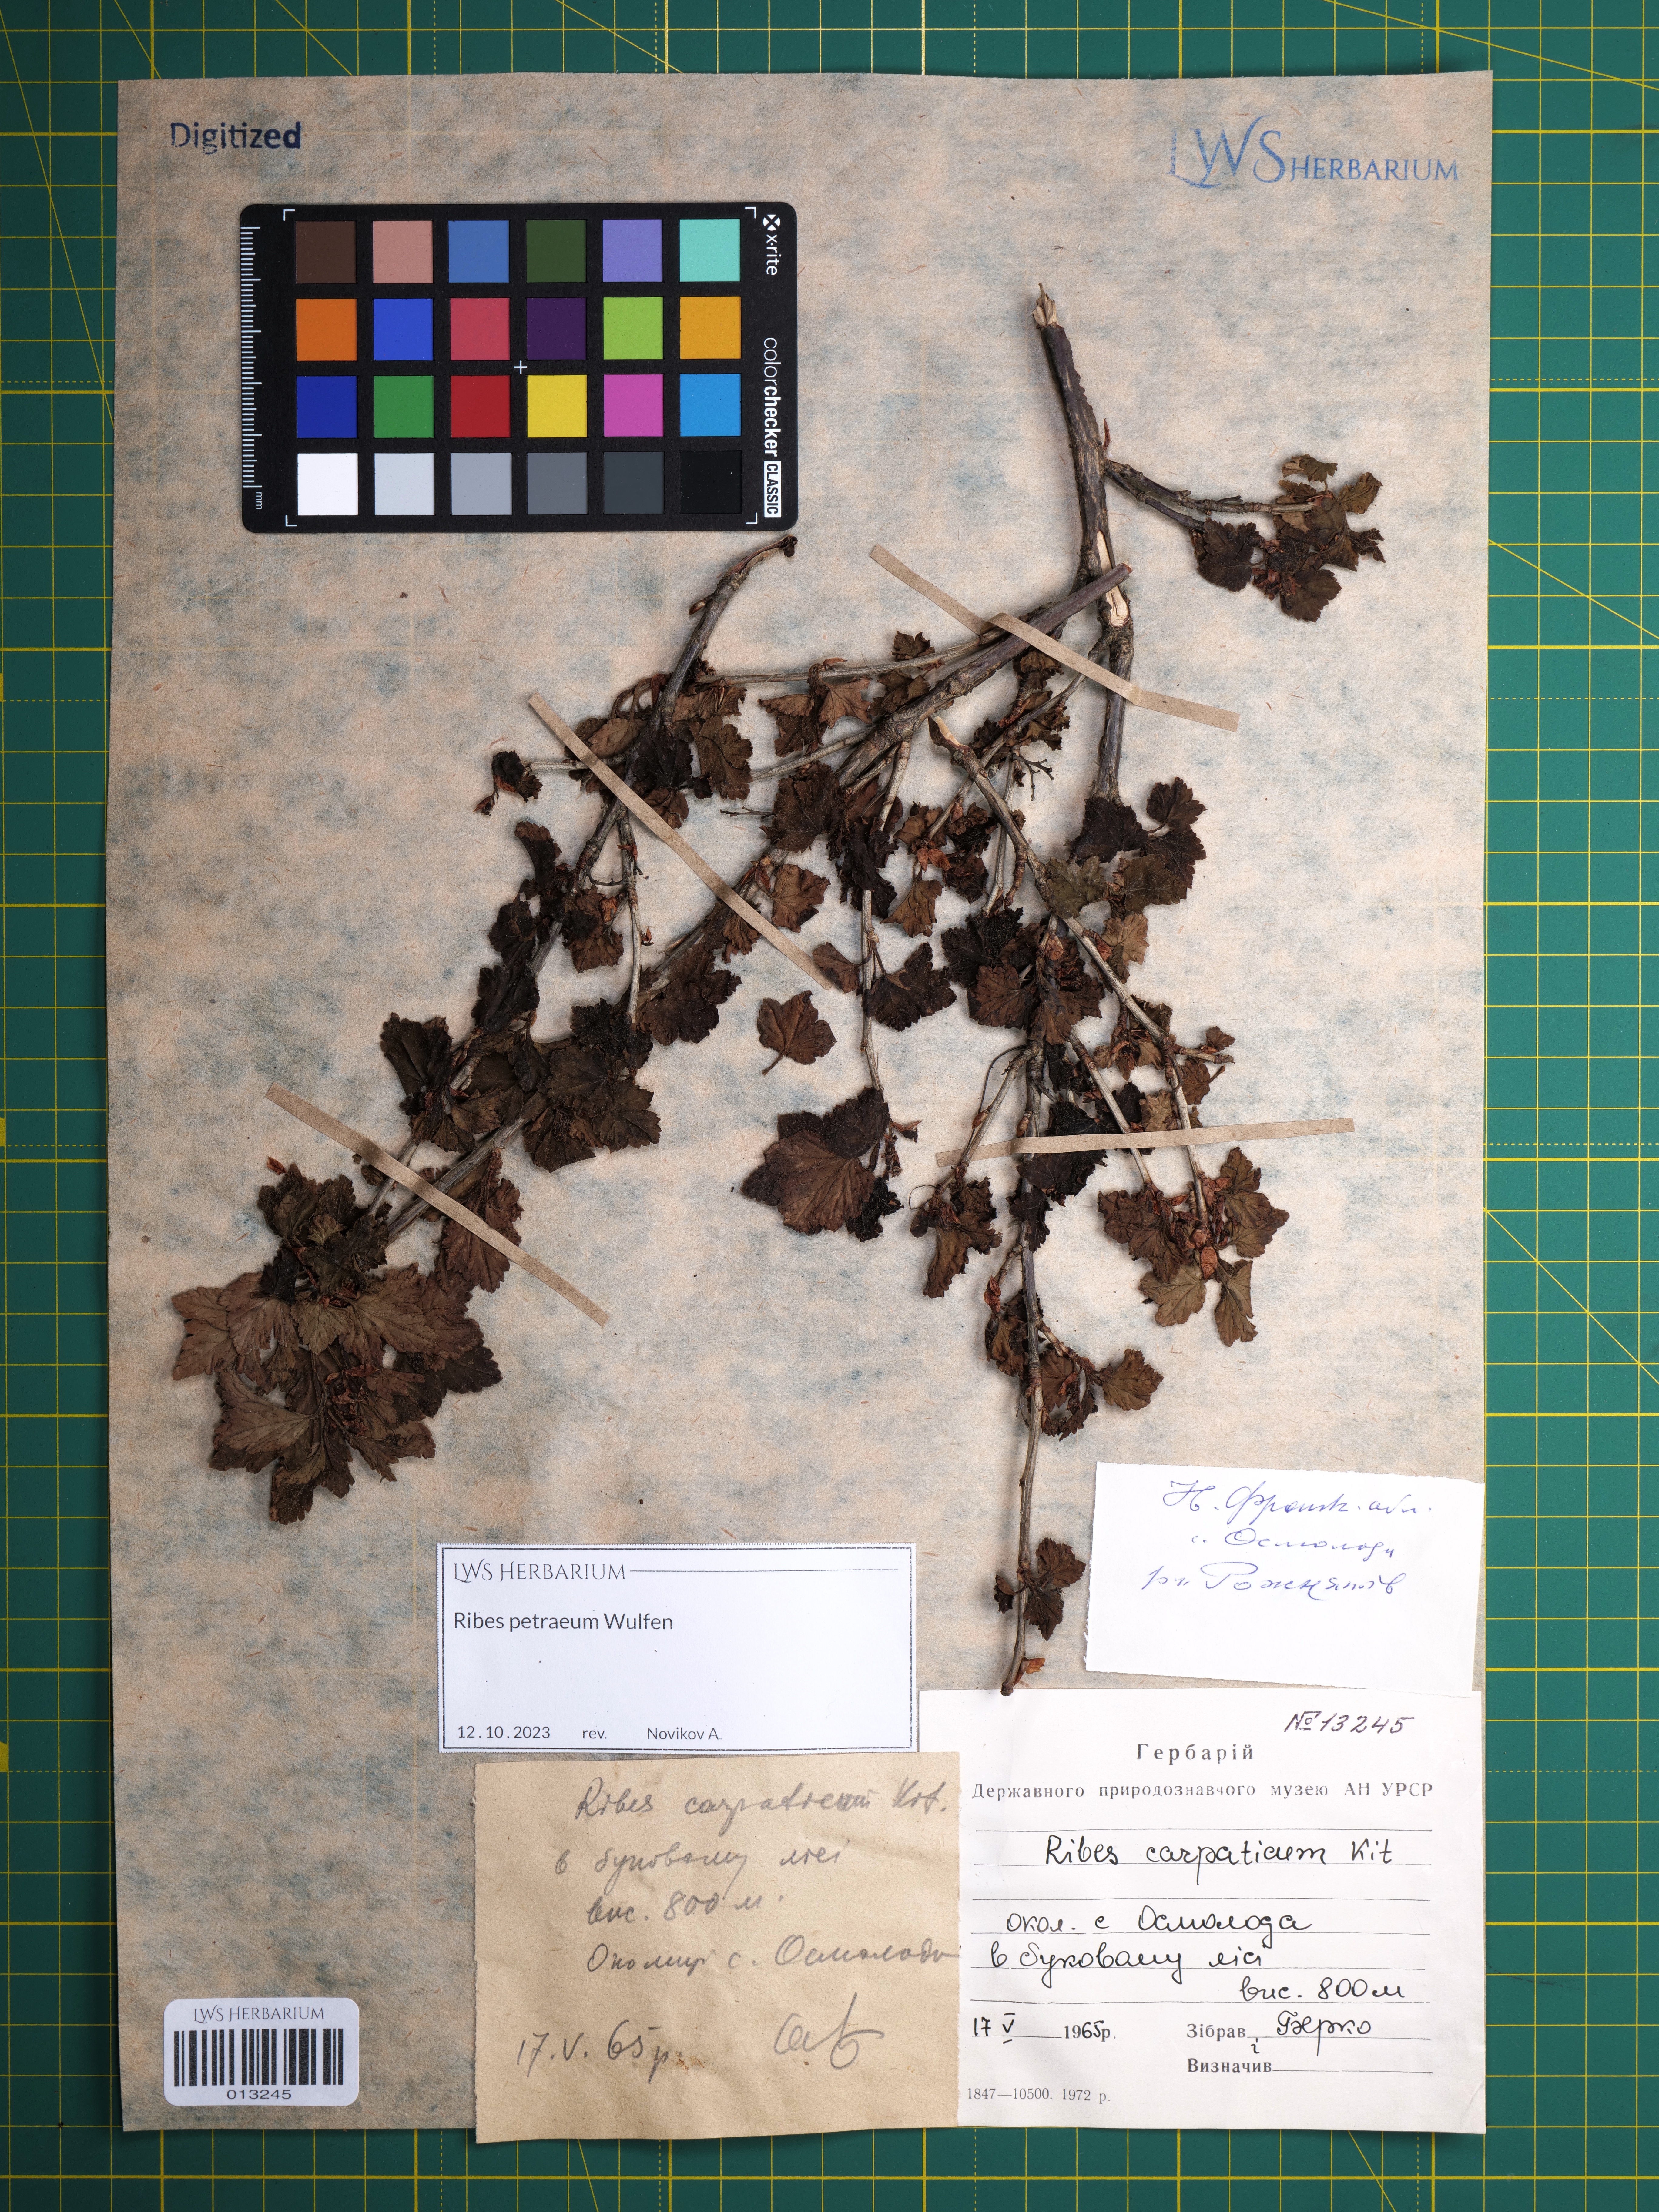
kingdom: Plantae
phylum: Tracheophyta
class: Magnoliopsida
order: Saxifragales
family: Grossulariaceae
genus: Ribes
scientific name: Ribes petraeum
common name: Rock currant
